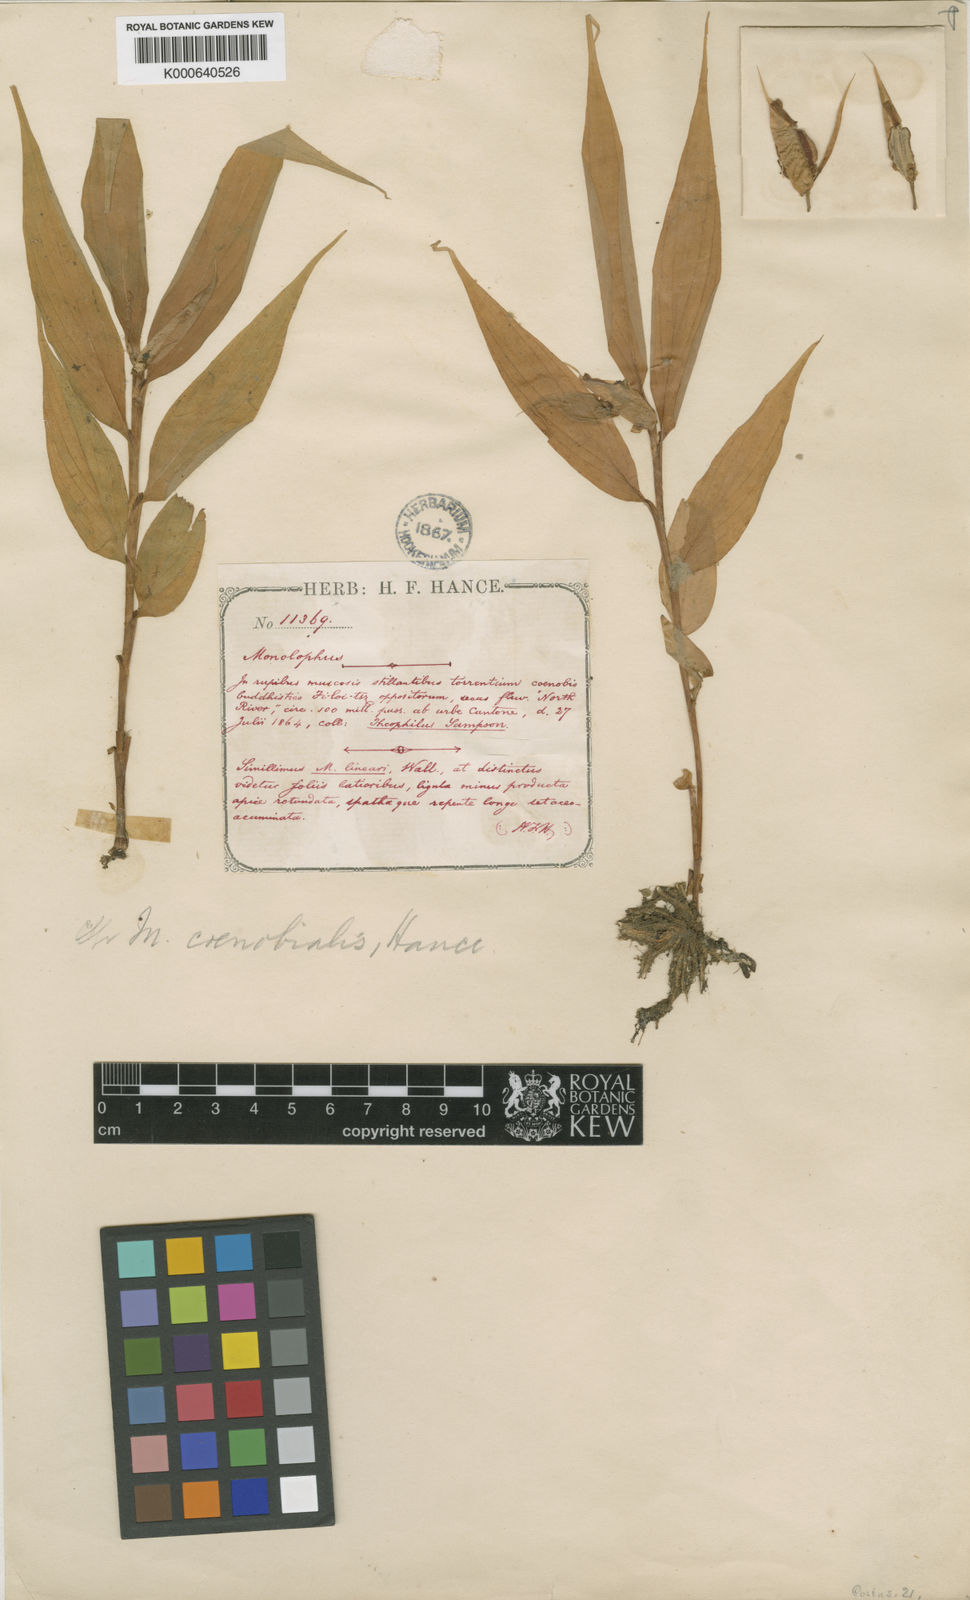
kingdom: Plantae
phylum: Tracheophyta
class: Liliopsida
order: Zingiberales
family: Zingiberaceae
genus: Caulokaempferia
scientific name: Caulokaempferia coenobialis
